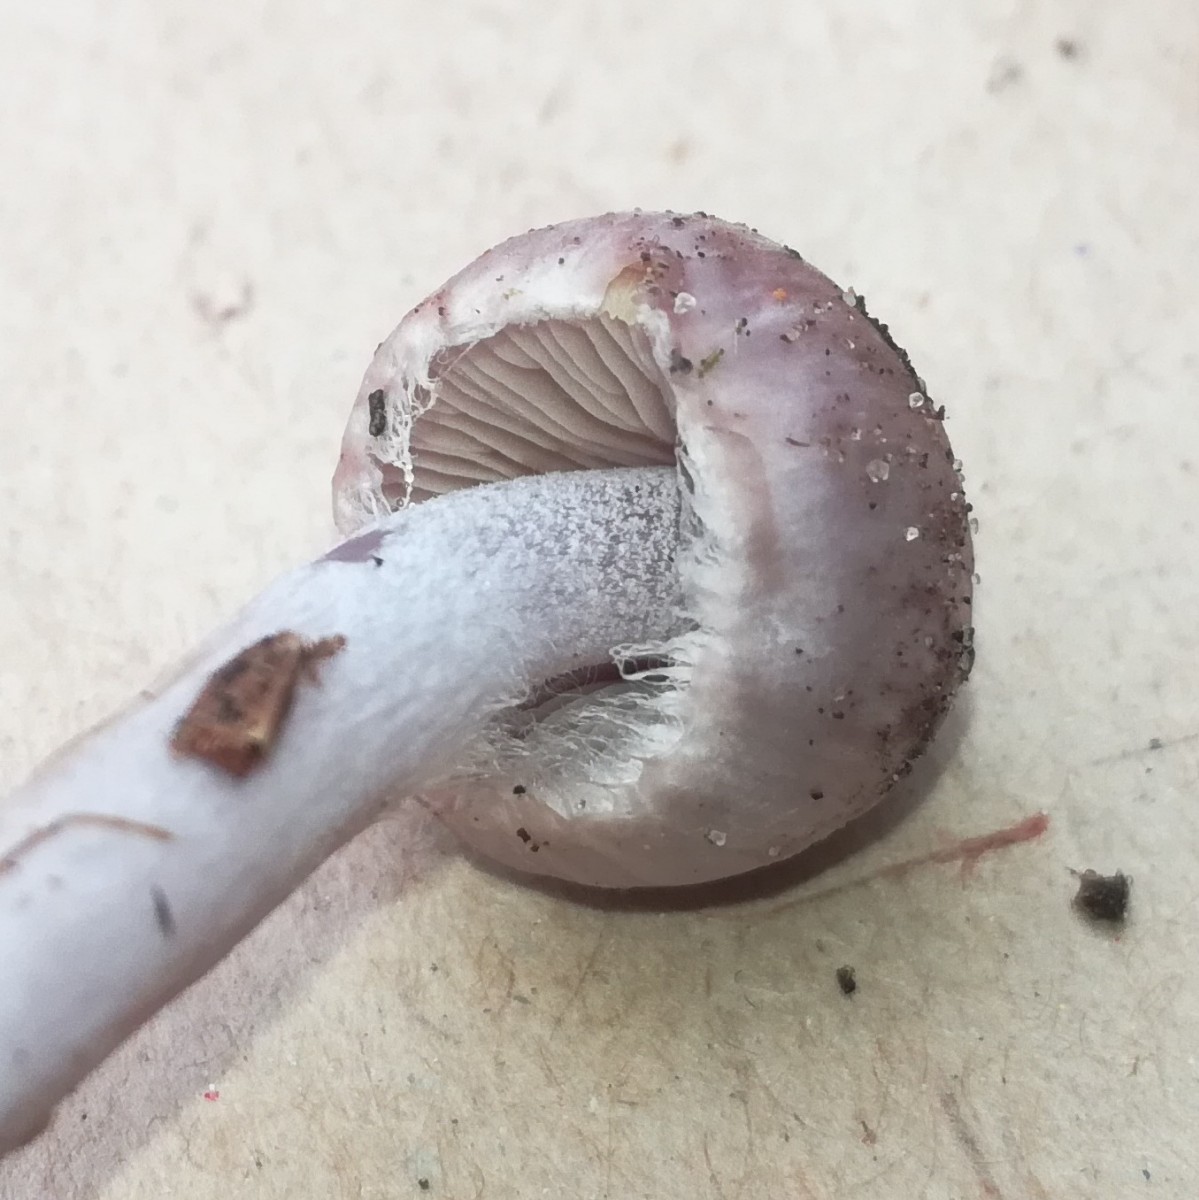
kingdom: Fungi
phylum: Basidiomycota
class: Agaricomycetes
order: Agaricales
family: Inocybaceae
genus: Inocybe
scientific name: Inocybe geophylla
